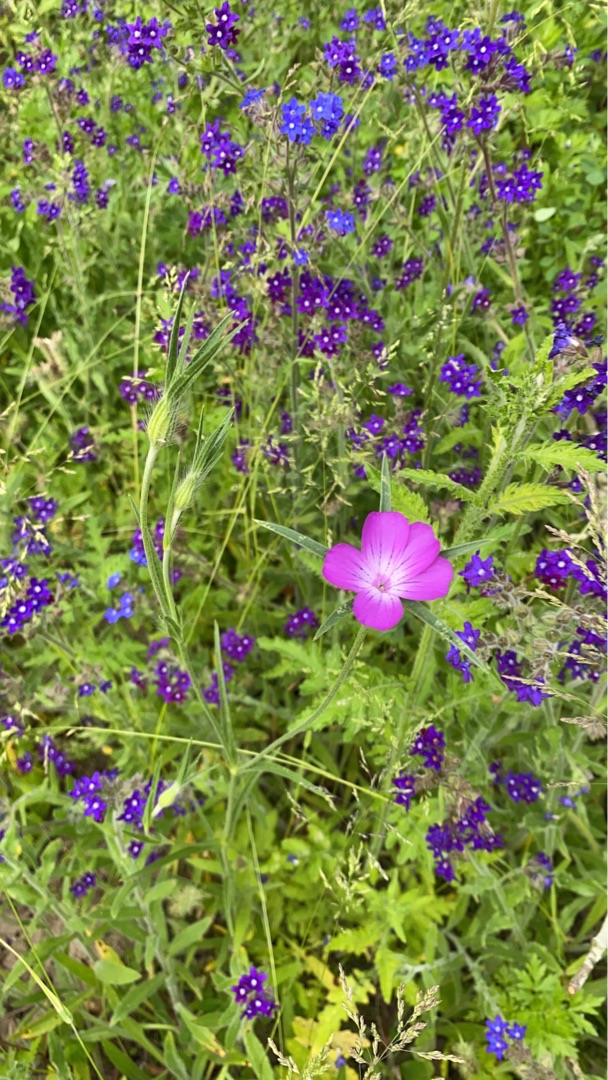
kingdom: Plantae
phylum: Tracheophyta
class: Magnoliopsida
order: Caryophyllales
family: Caryophyllaceae
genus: Agrostemma
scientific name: Agrostemma githago
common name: Klinte
